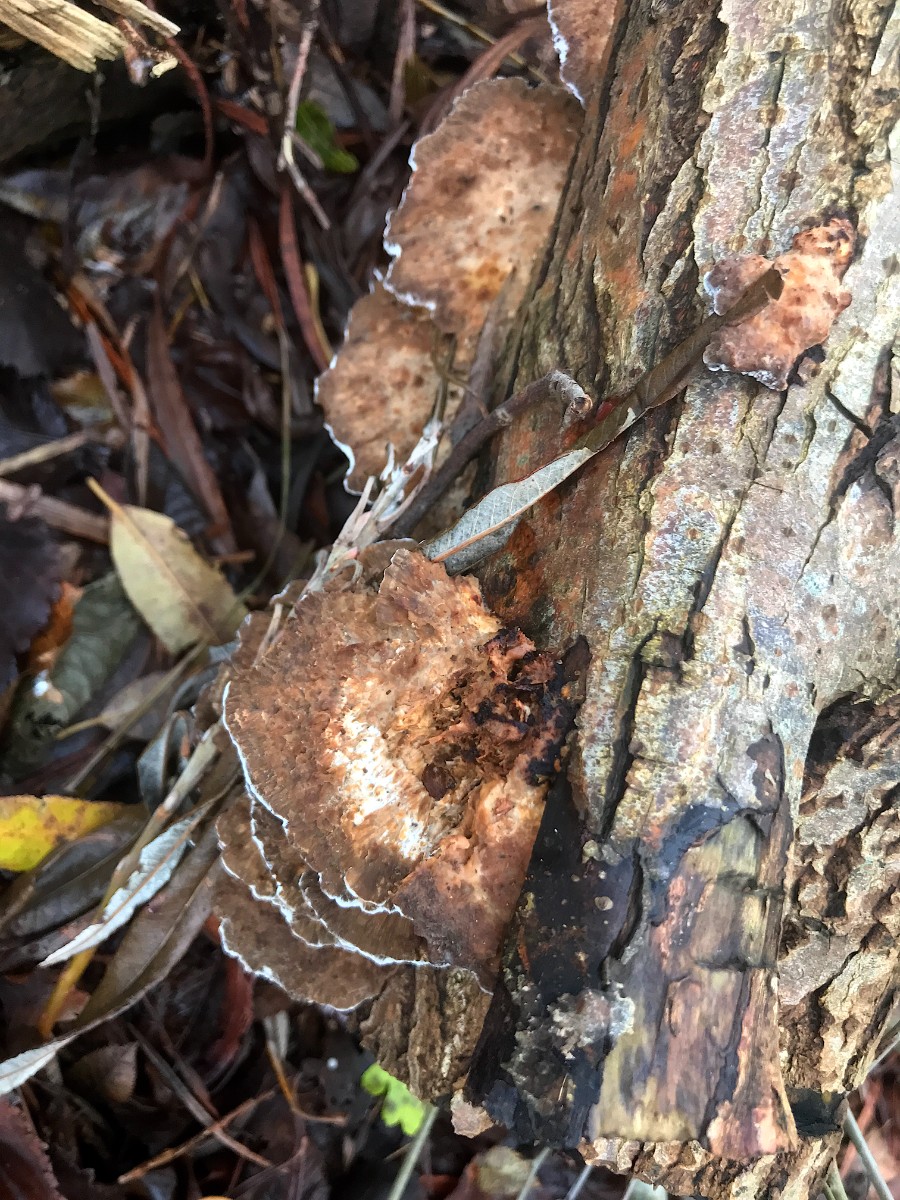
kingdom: Fungi
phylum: Basidiomycota
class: Agaricomycetes
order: Polyporales
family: Polyporaceae
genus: Daedaleopsis
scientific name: Daedaleopsis confragosa
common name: rødmende læderporesvamp
